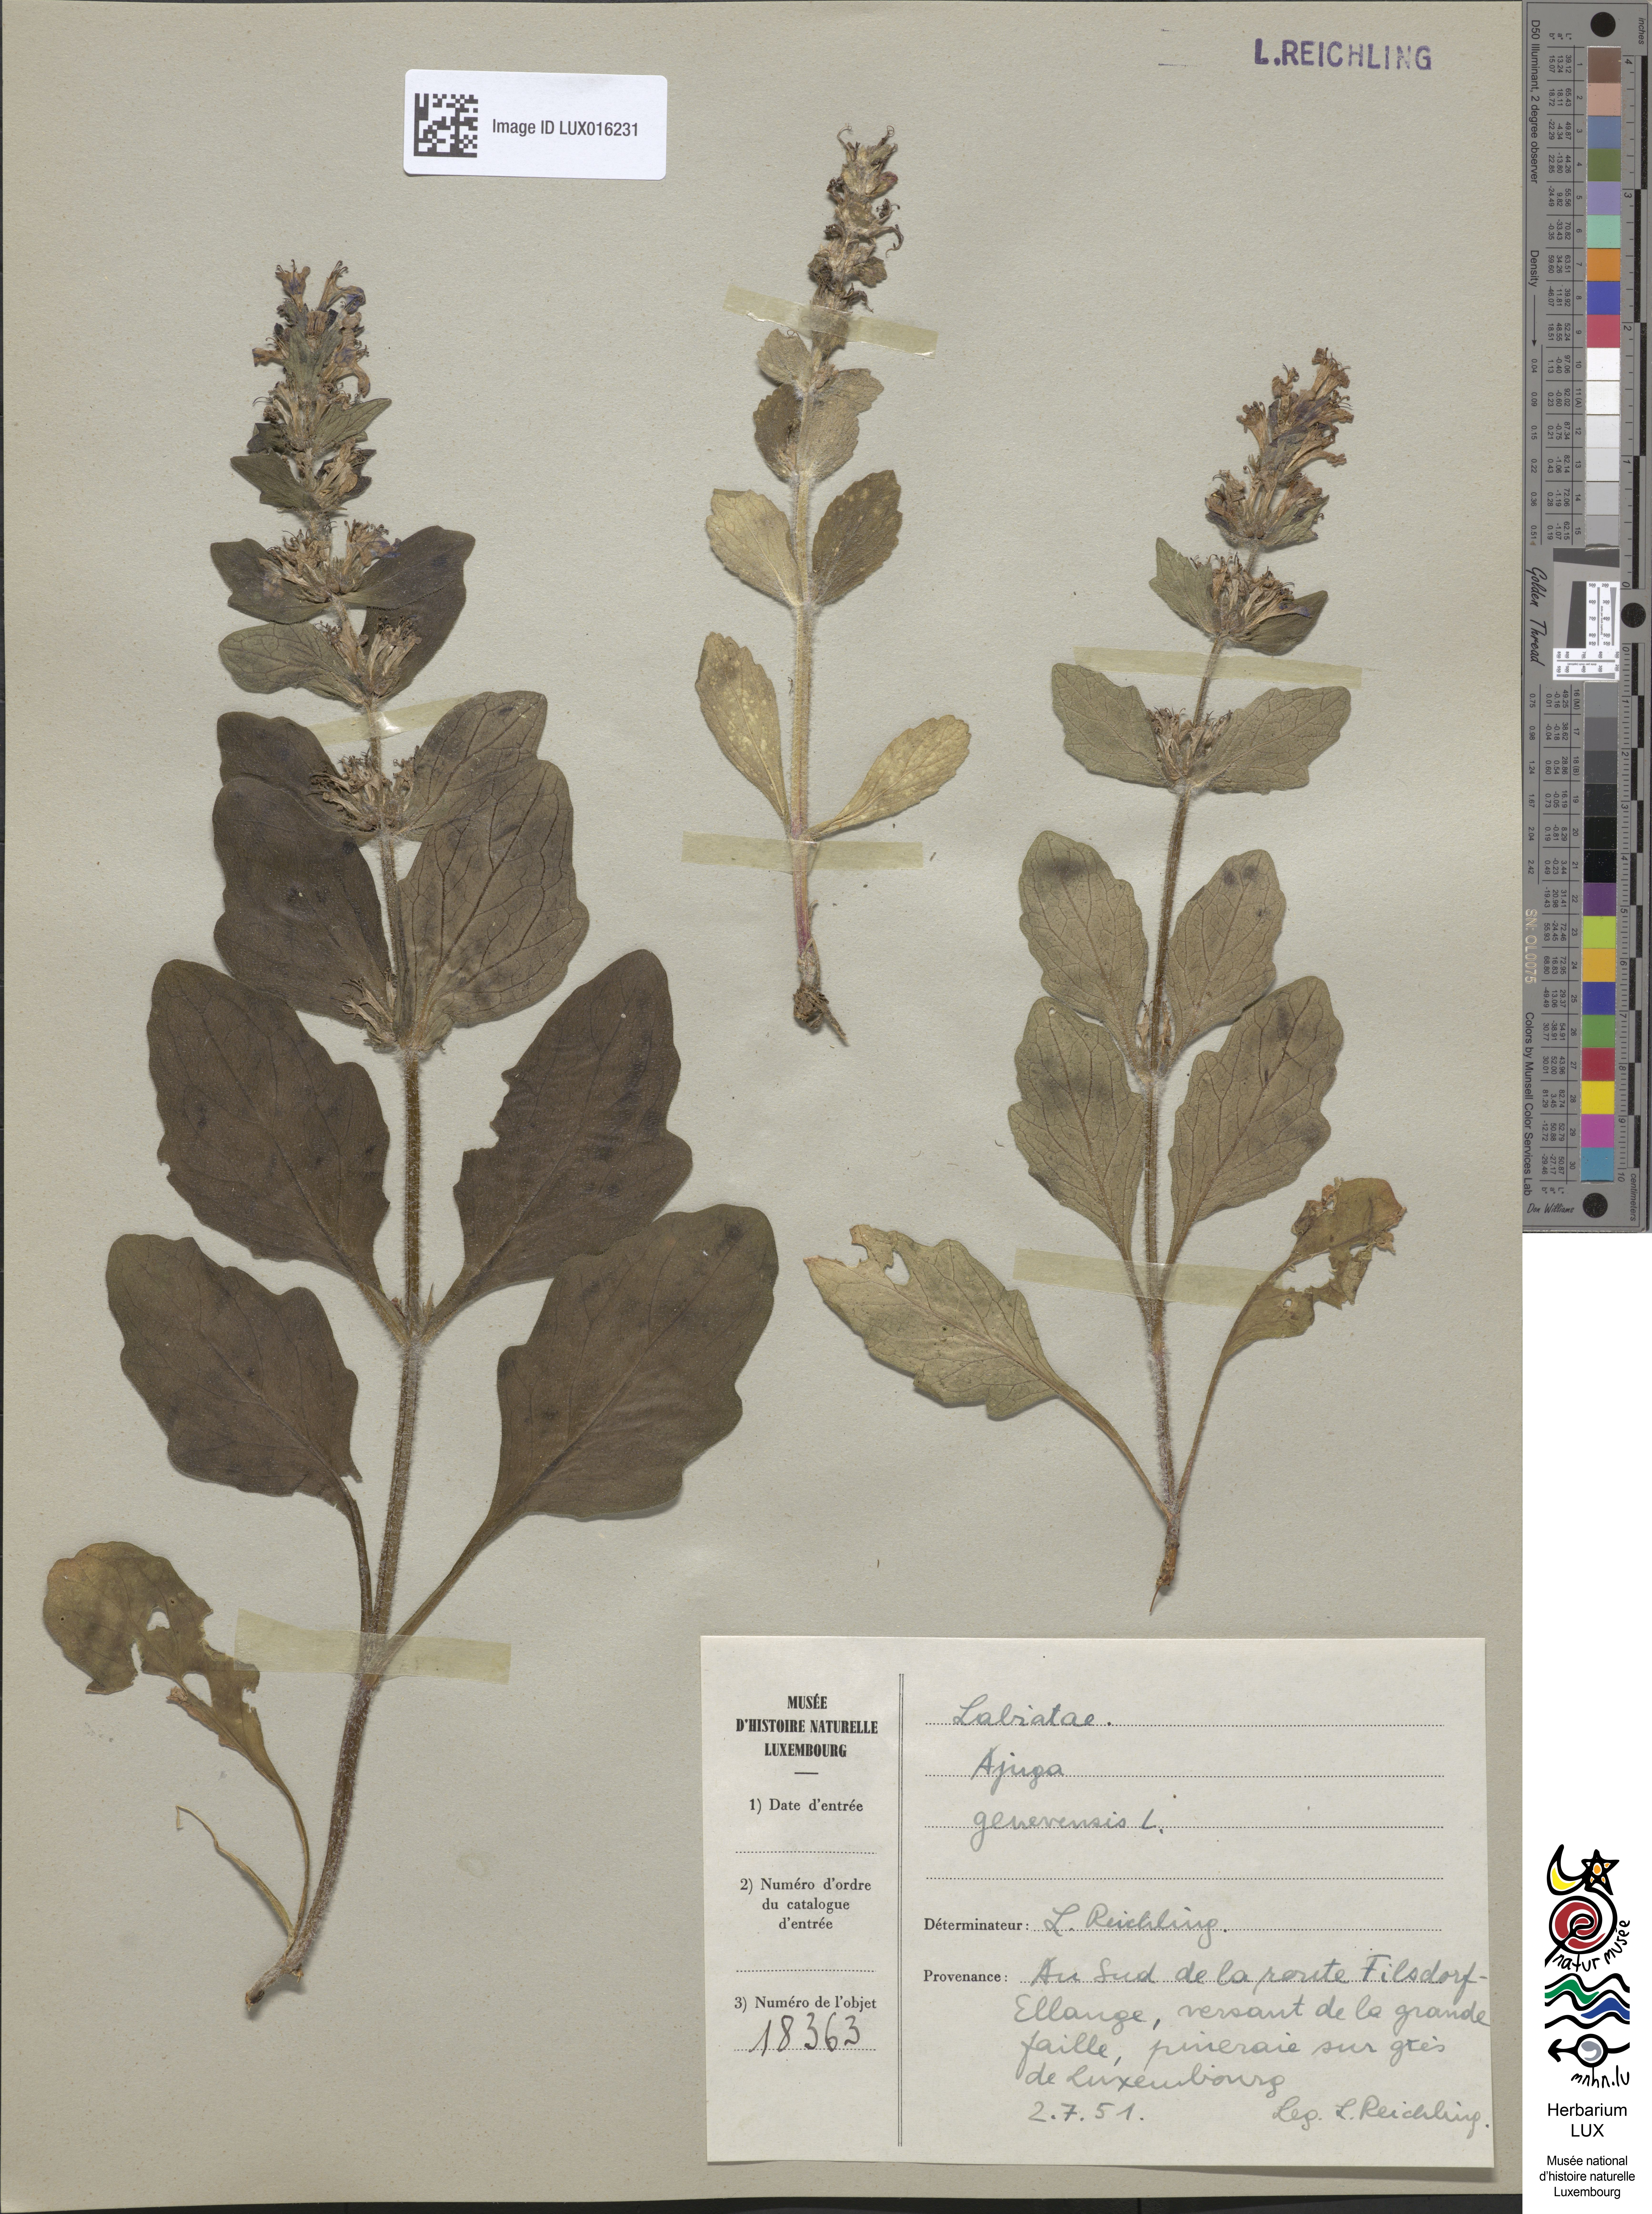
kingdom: Plantae
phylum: Tracheophyta
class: Magnoliopsida
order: Lamiales
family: Lamiaceae
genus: Ajuga
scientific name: Ajuga genevensis
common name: Blue bugle
